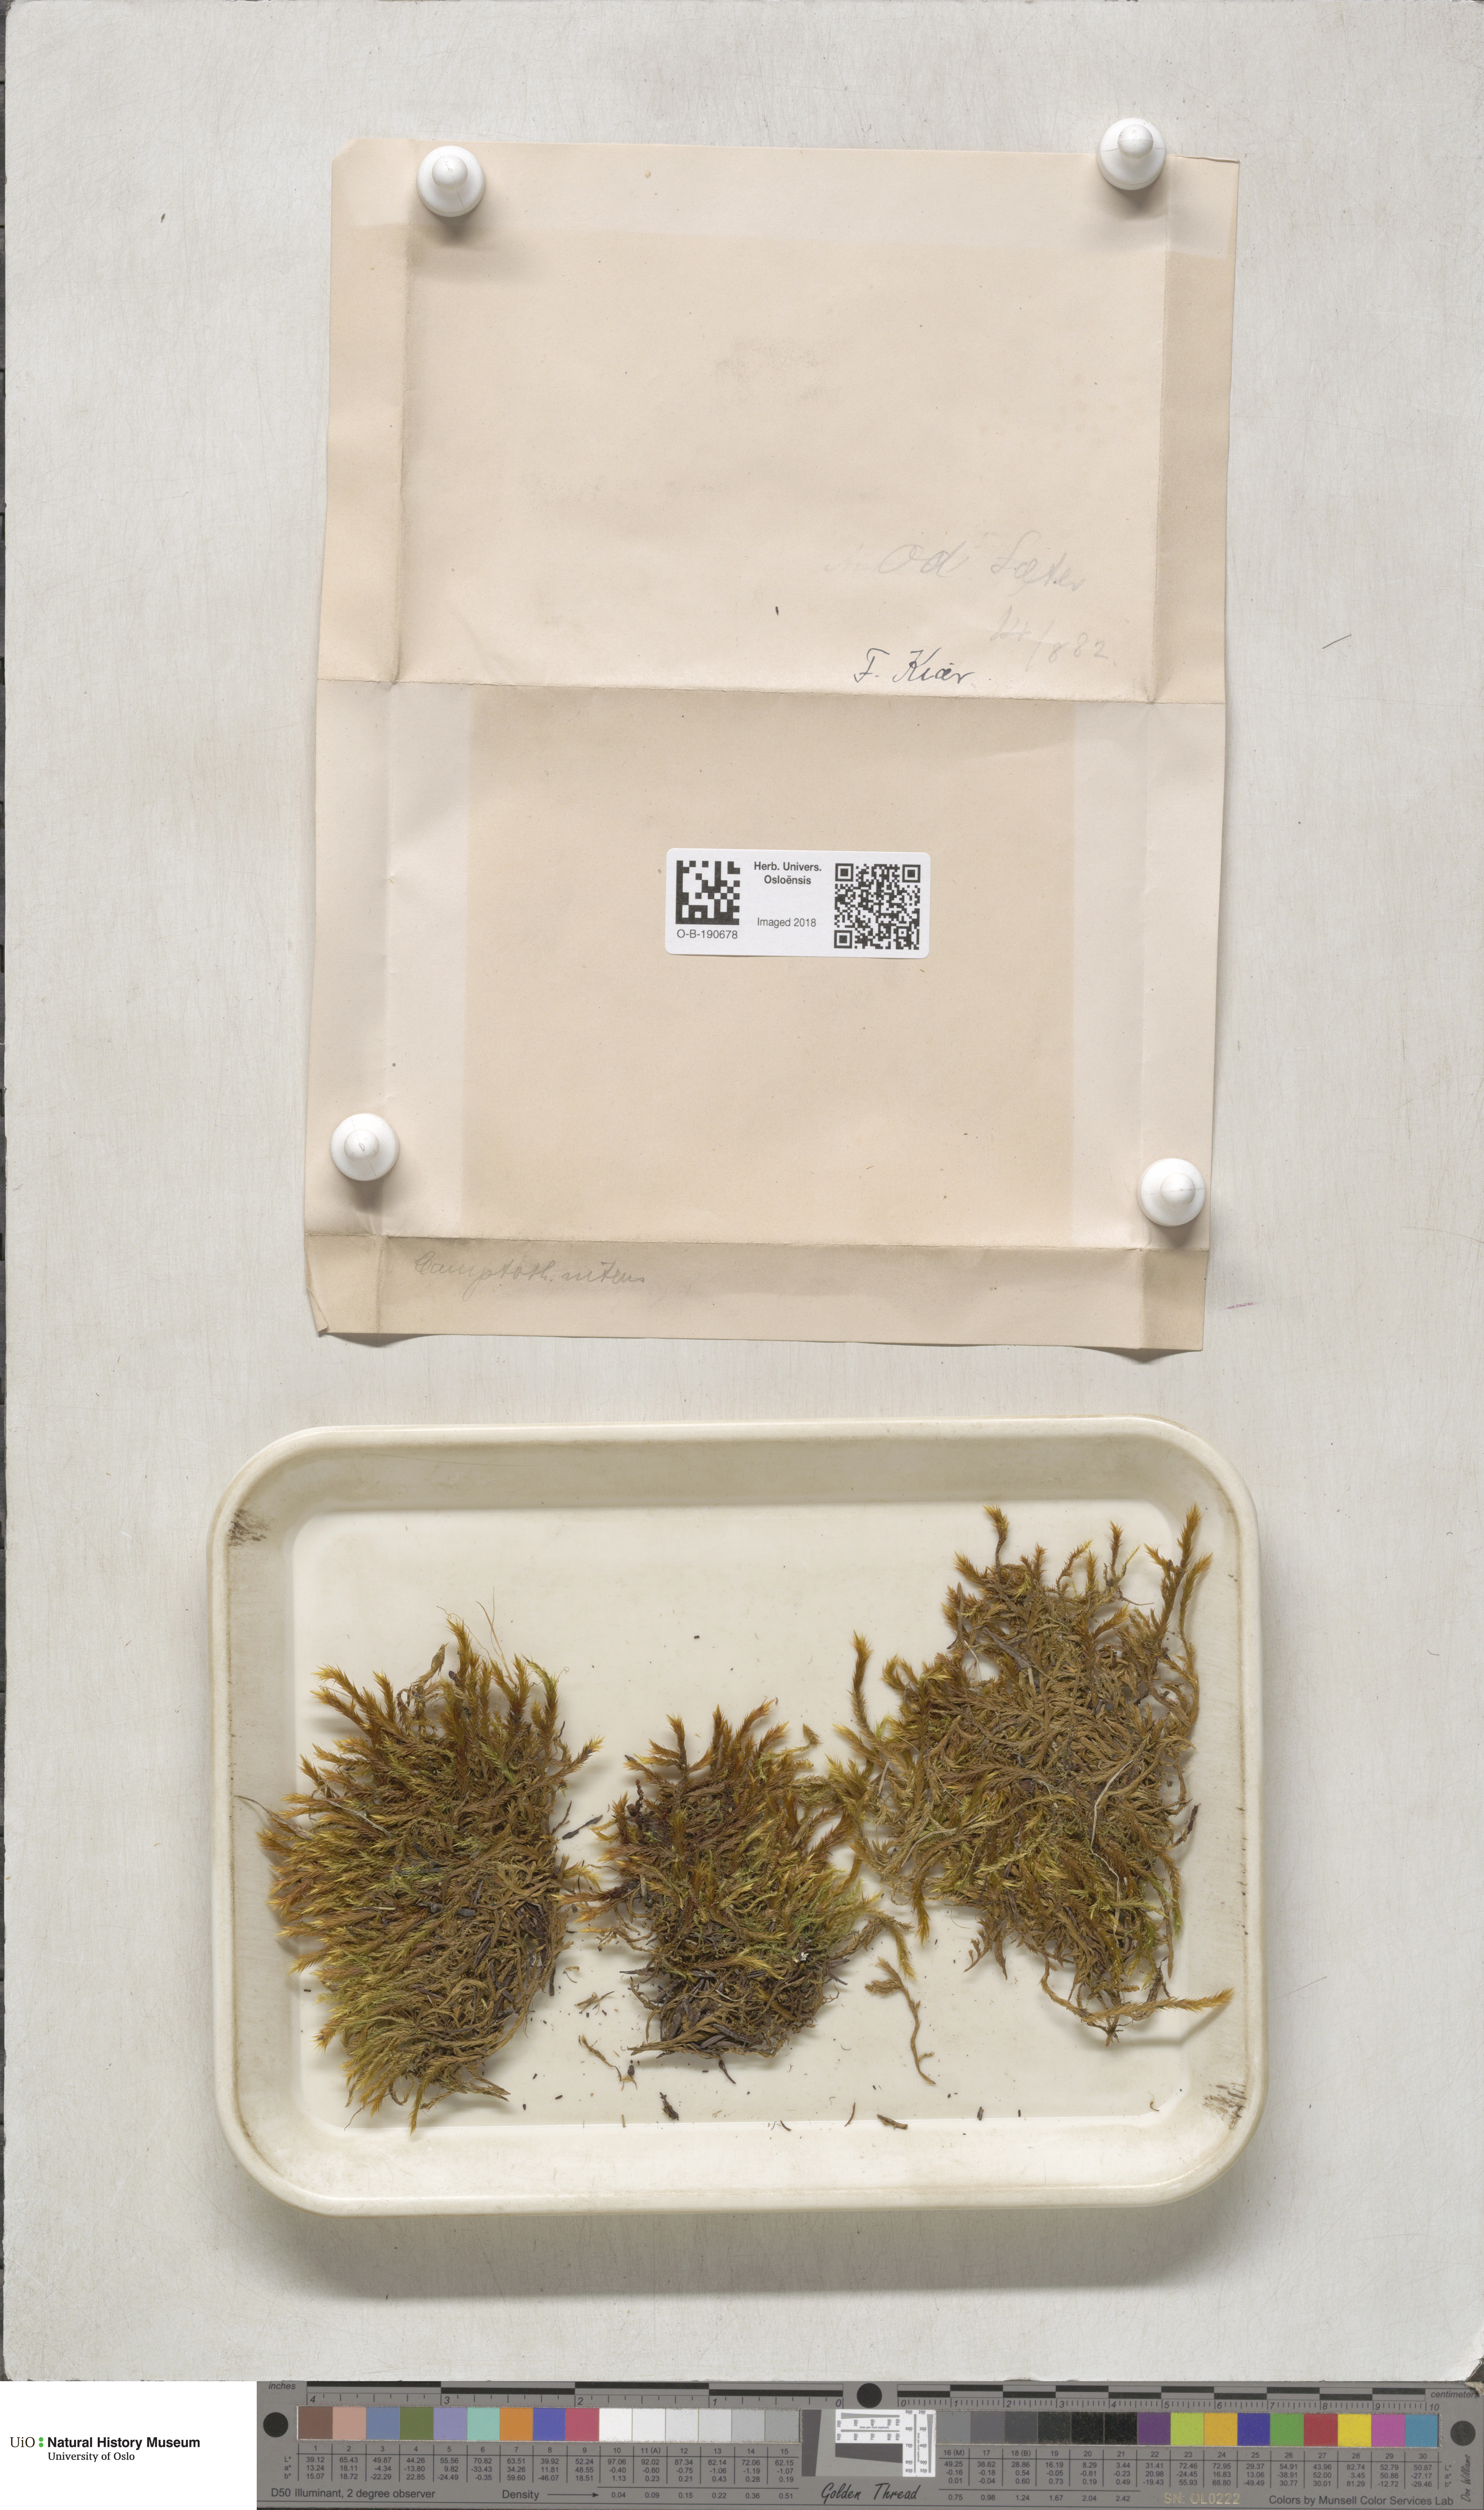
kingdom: Plantae
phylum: Bryophyta
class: Bryopsida
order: Hypnales
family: Amblystegiaceae
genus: Tomentypnum
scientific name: Tomentypnum nitens
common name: Golden fuzzy fen moss
